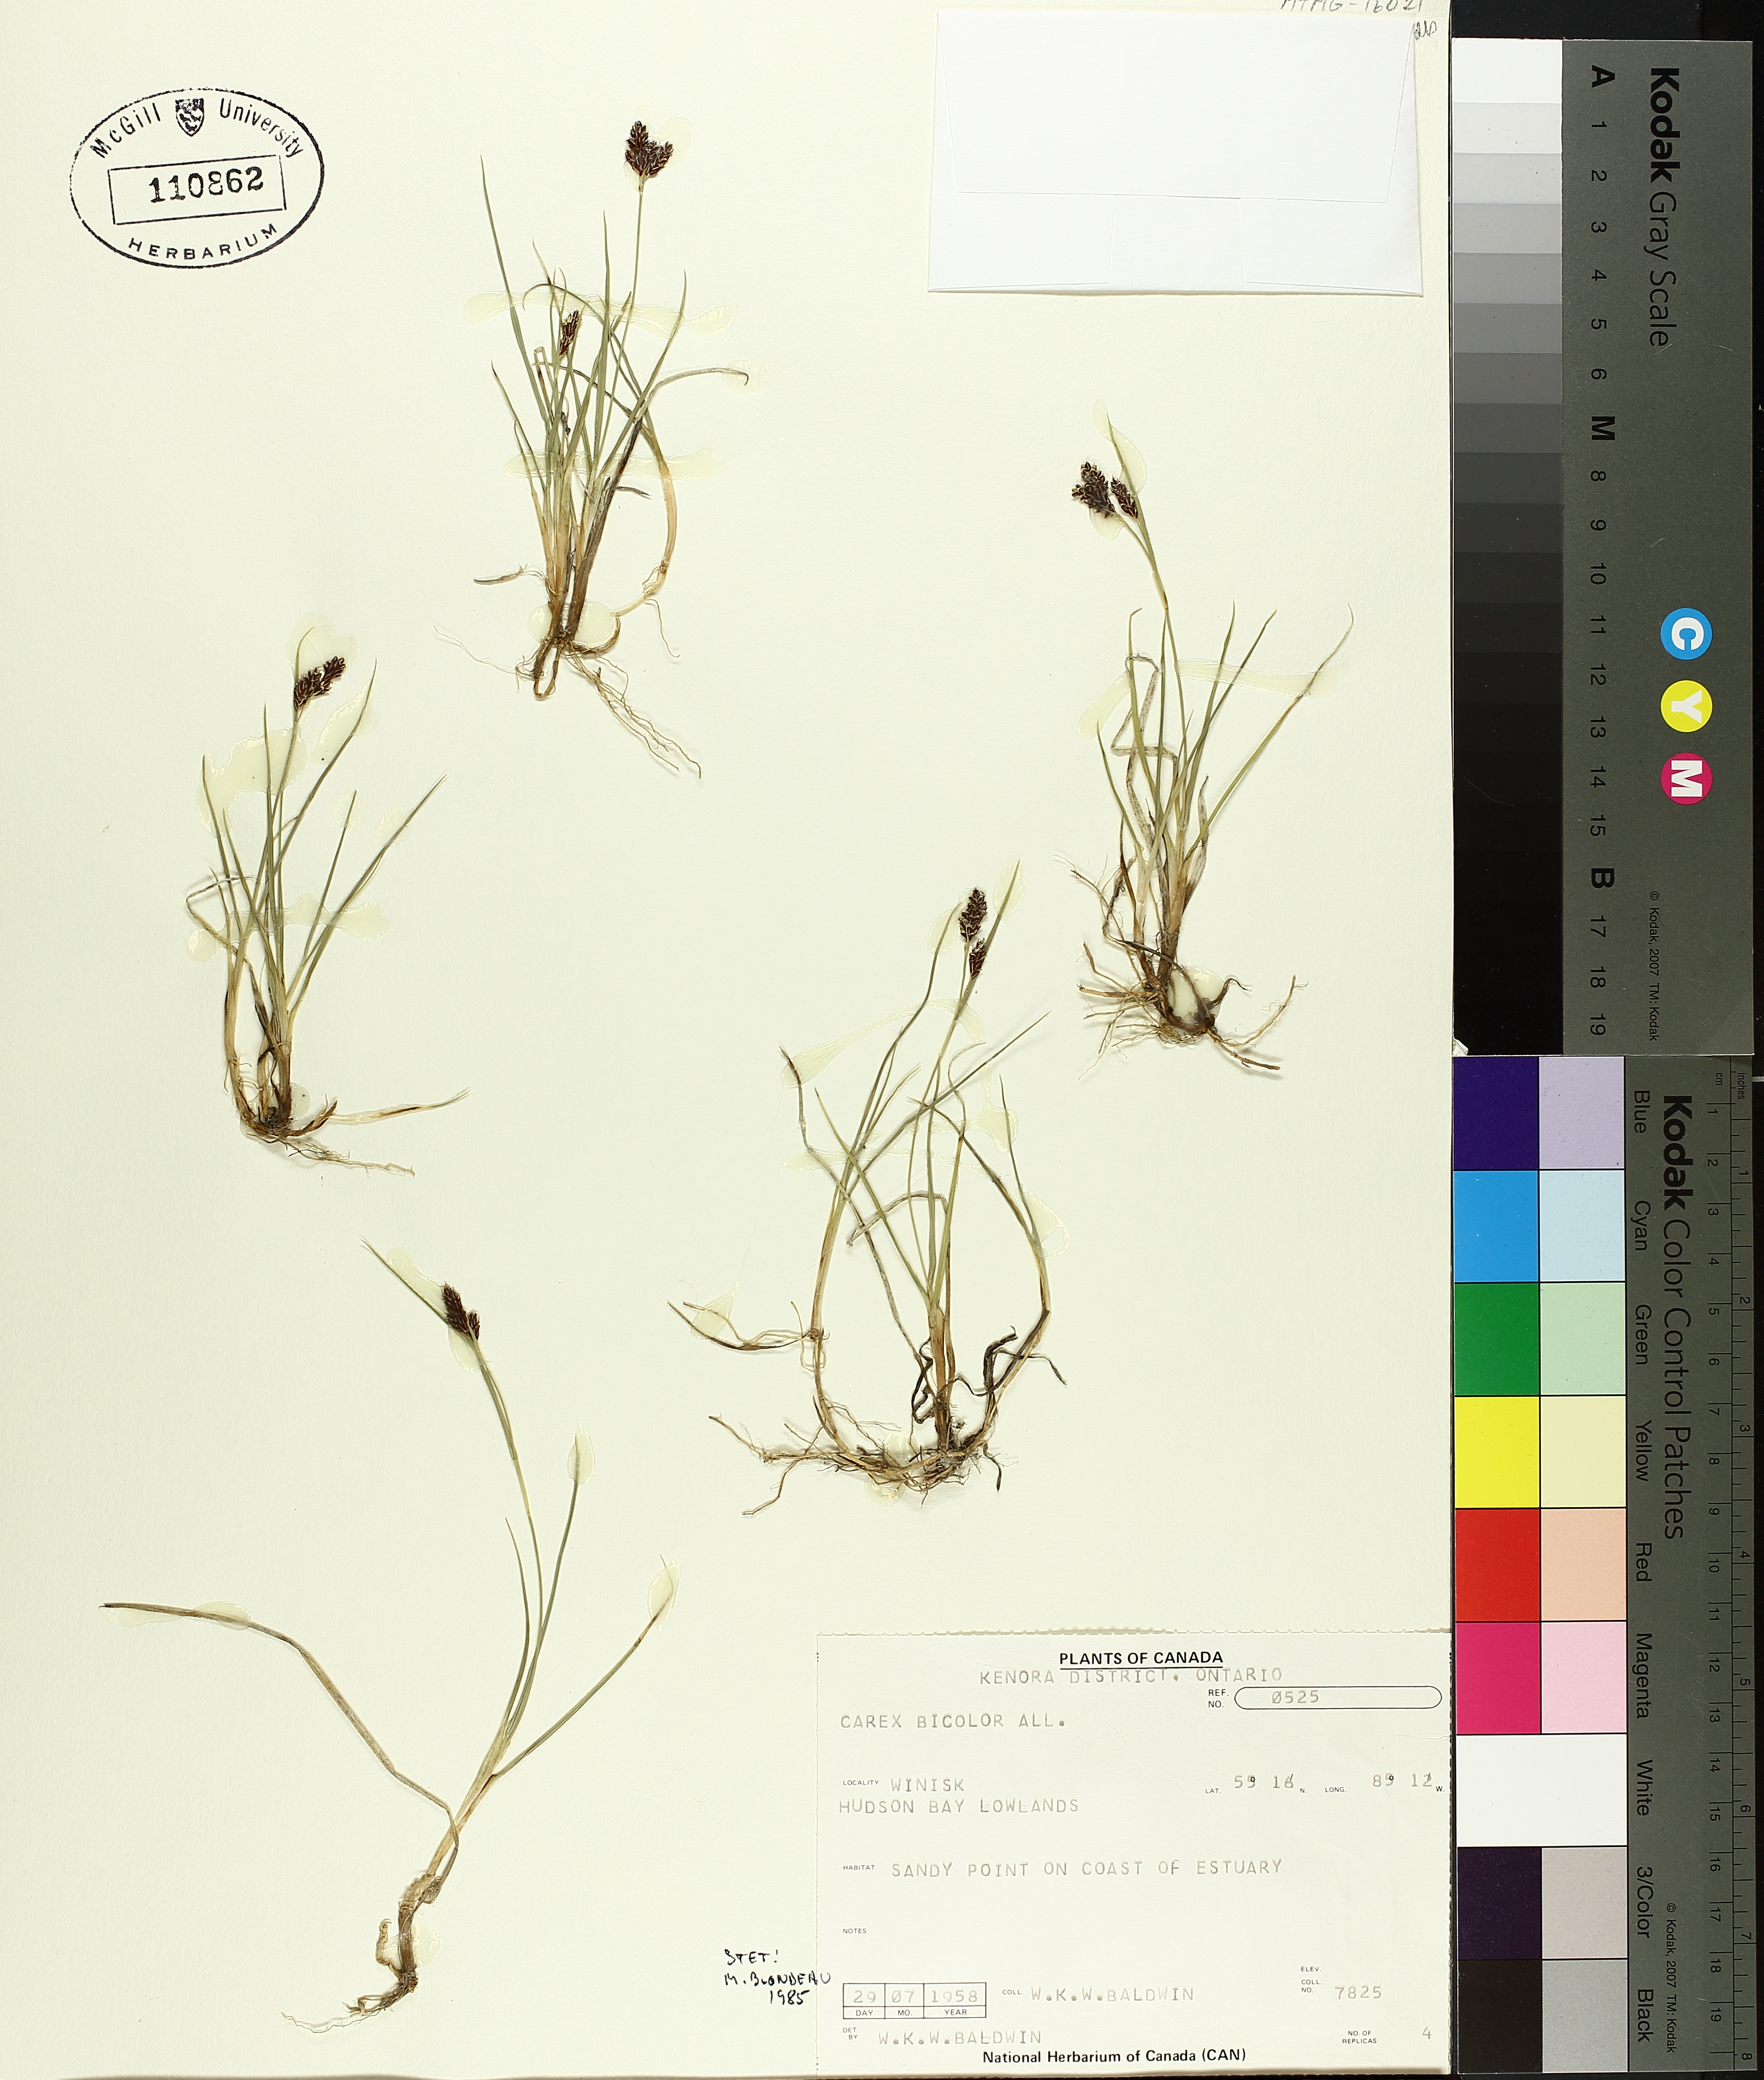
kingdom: Plantae
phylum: Tracheophyta
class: Liliopsida
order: Poales
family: Cyperaceae
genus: Carex
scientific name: Carex bicolor
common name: Bicoloured sedge
